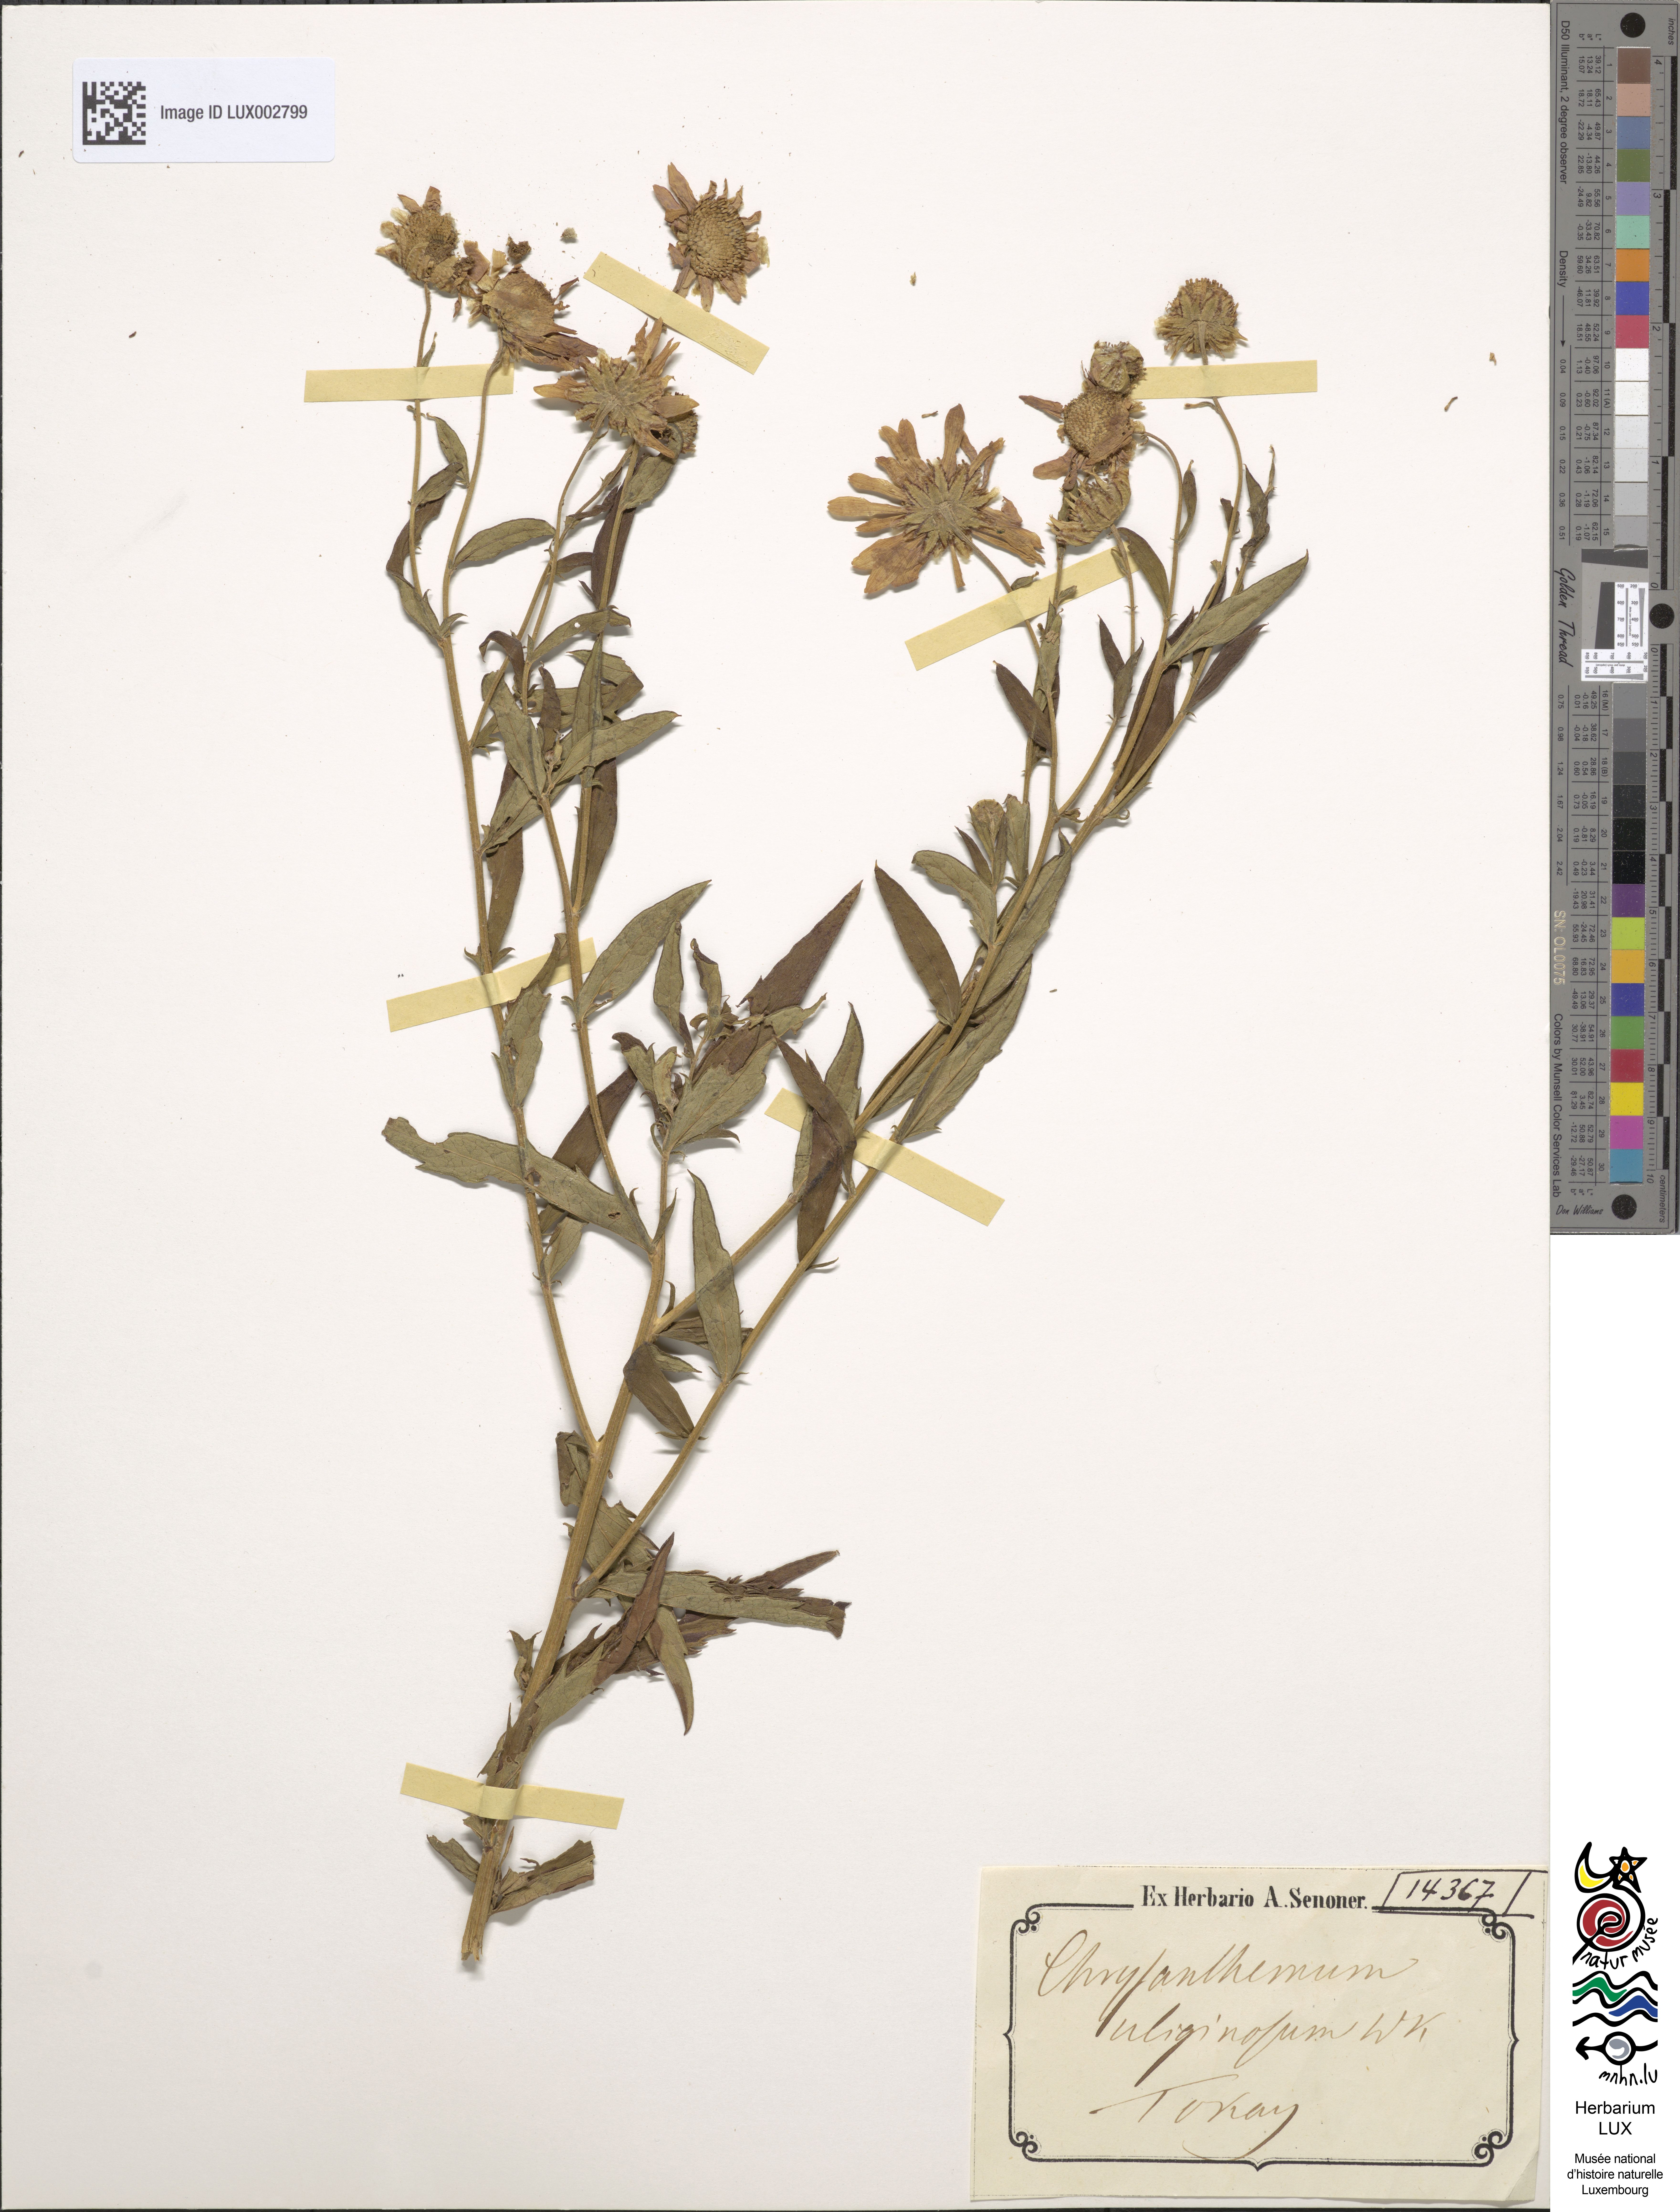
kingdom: Plantae
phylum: Tracheophyta
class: Magnoliopsida
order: Asterales
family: Asteraceae
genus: Leucanthemella
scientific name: Leucanthemella serotina
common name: Autumn oxeye
